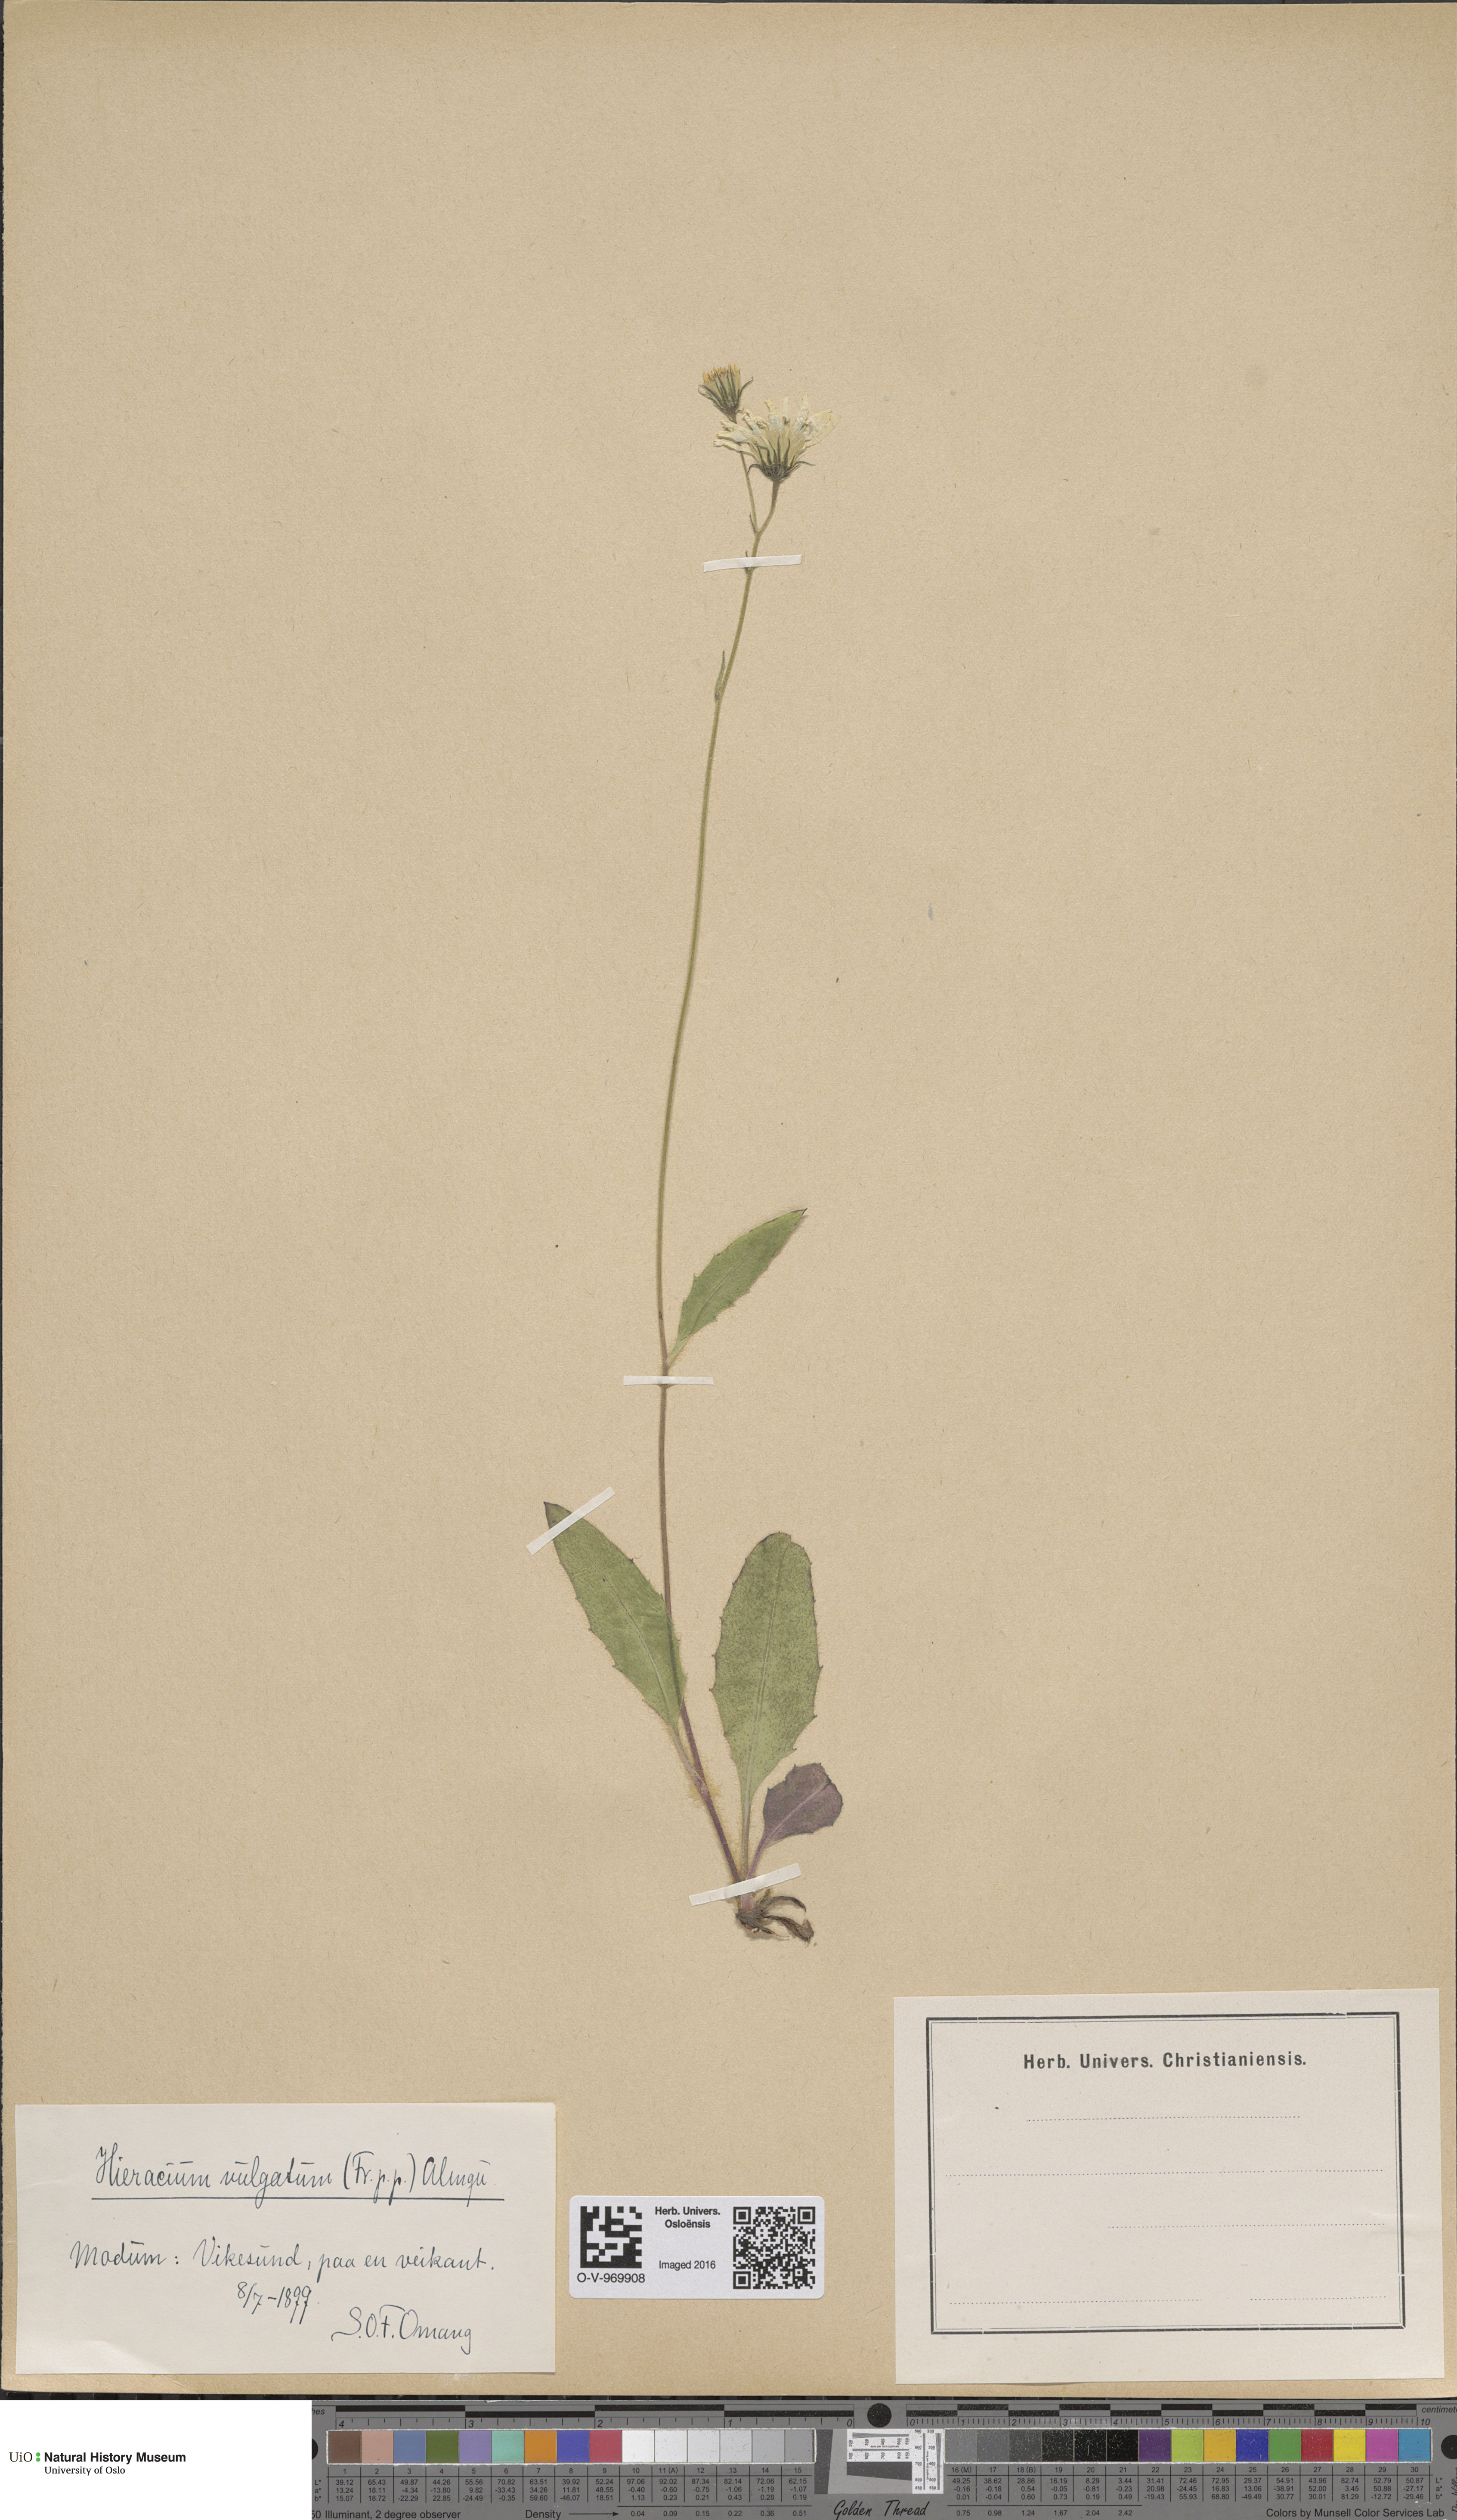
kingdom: Plantae
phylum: Tracheophyta
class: Magnoliopsida
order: Asterales
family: Asteraceae
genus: Hieracium
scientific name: Hieracium vulgatum
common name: Common hawkweed
